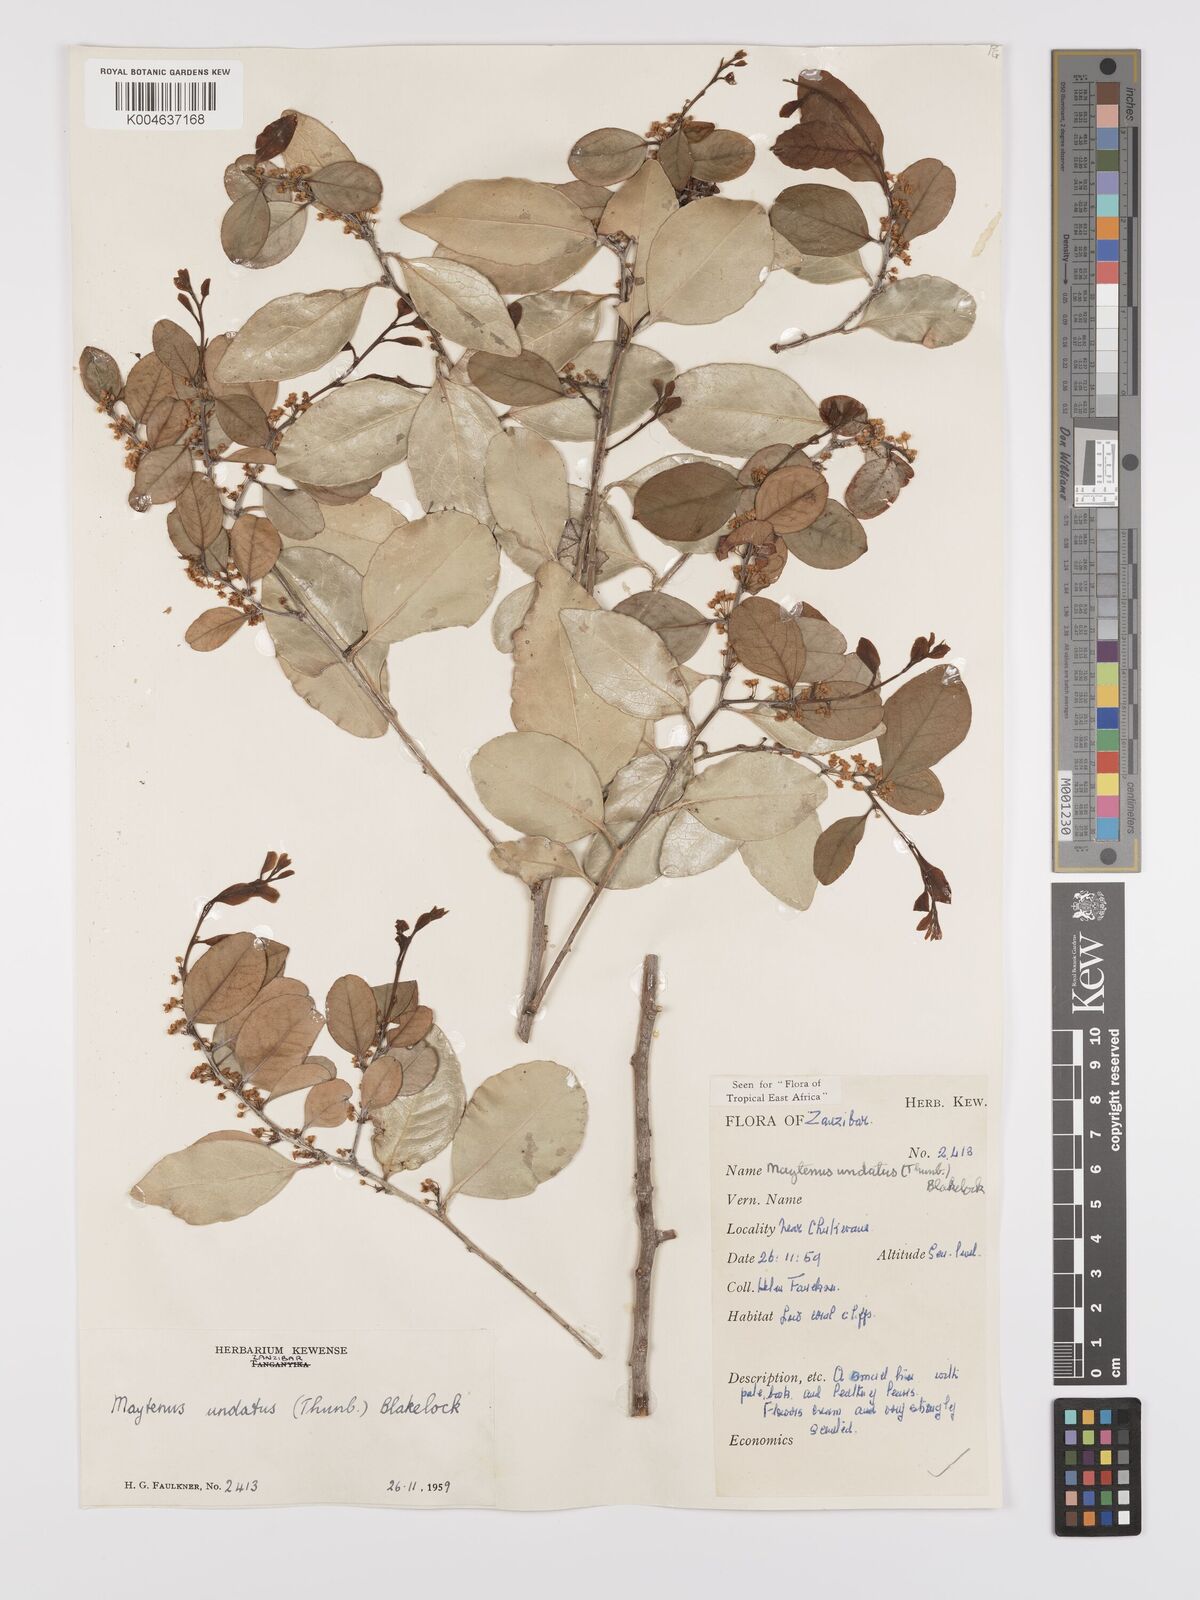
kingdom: Plantae
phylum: Tracheophyta
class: Magnoliopsida
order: Celastrales
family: Celastraceae
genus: Gymnosporia
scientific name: Gymnosporia undata
